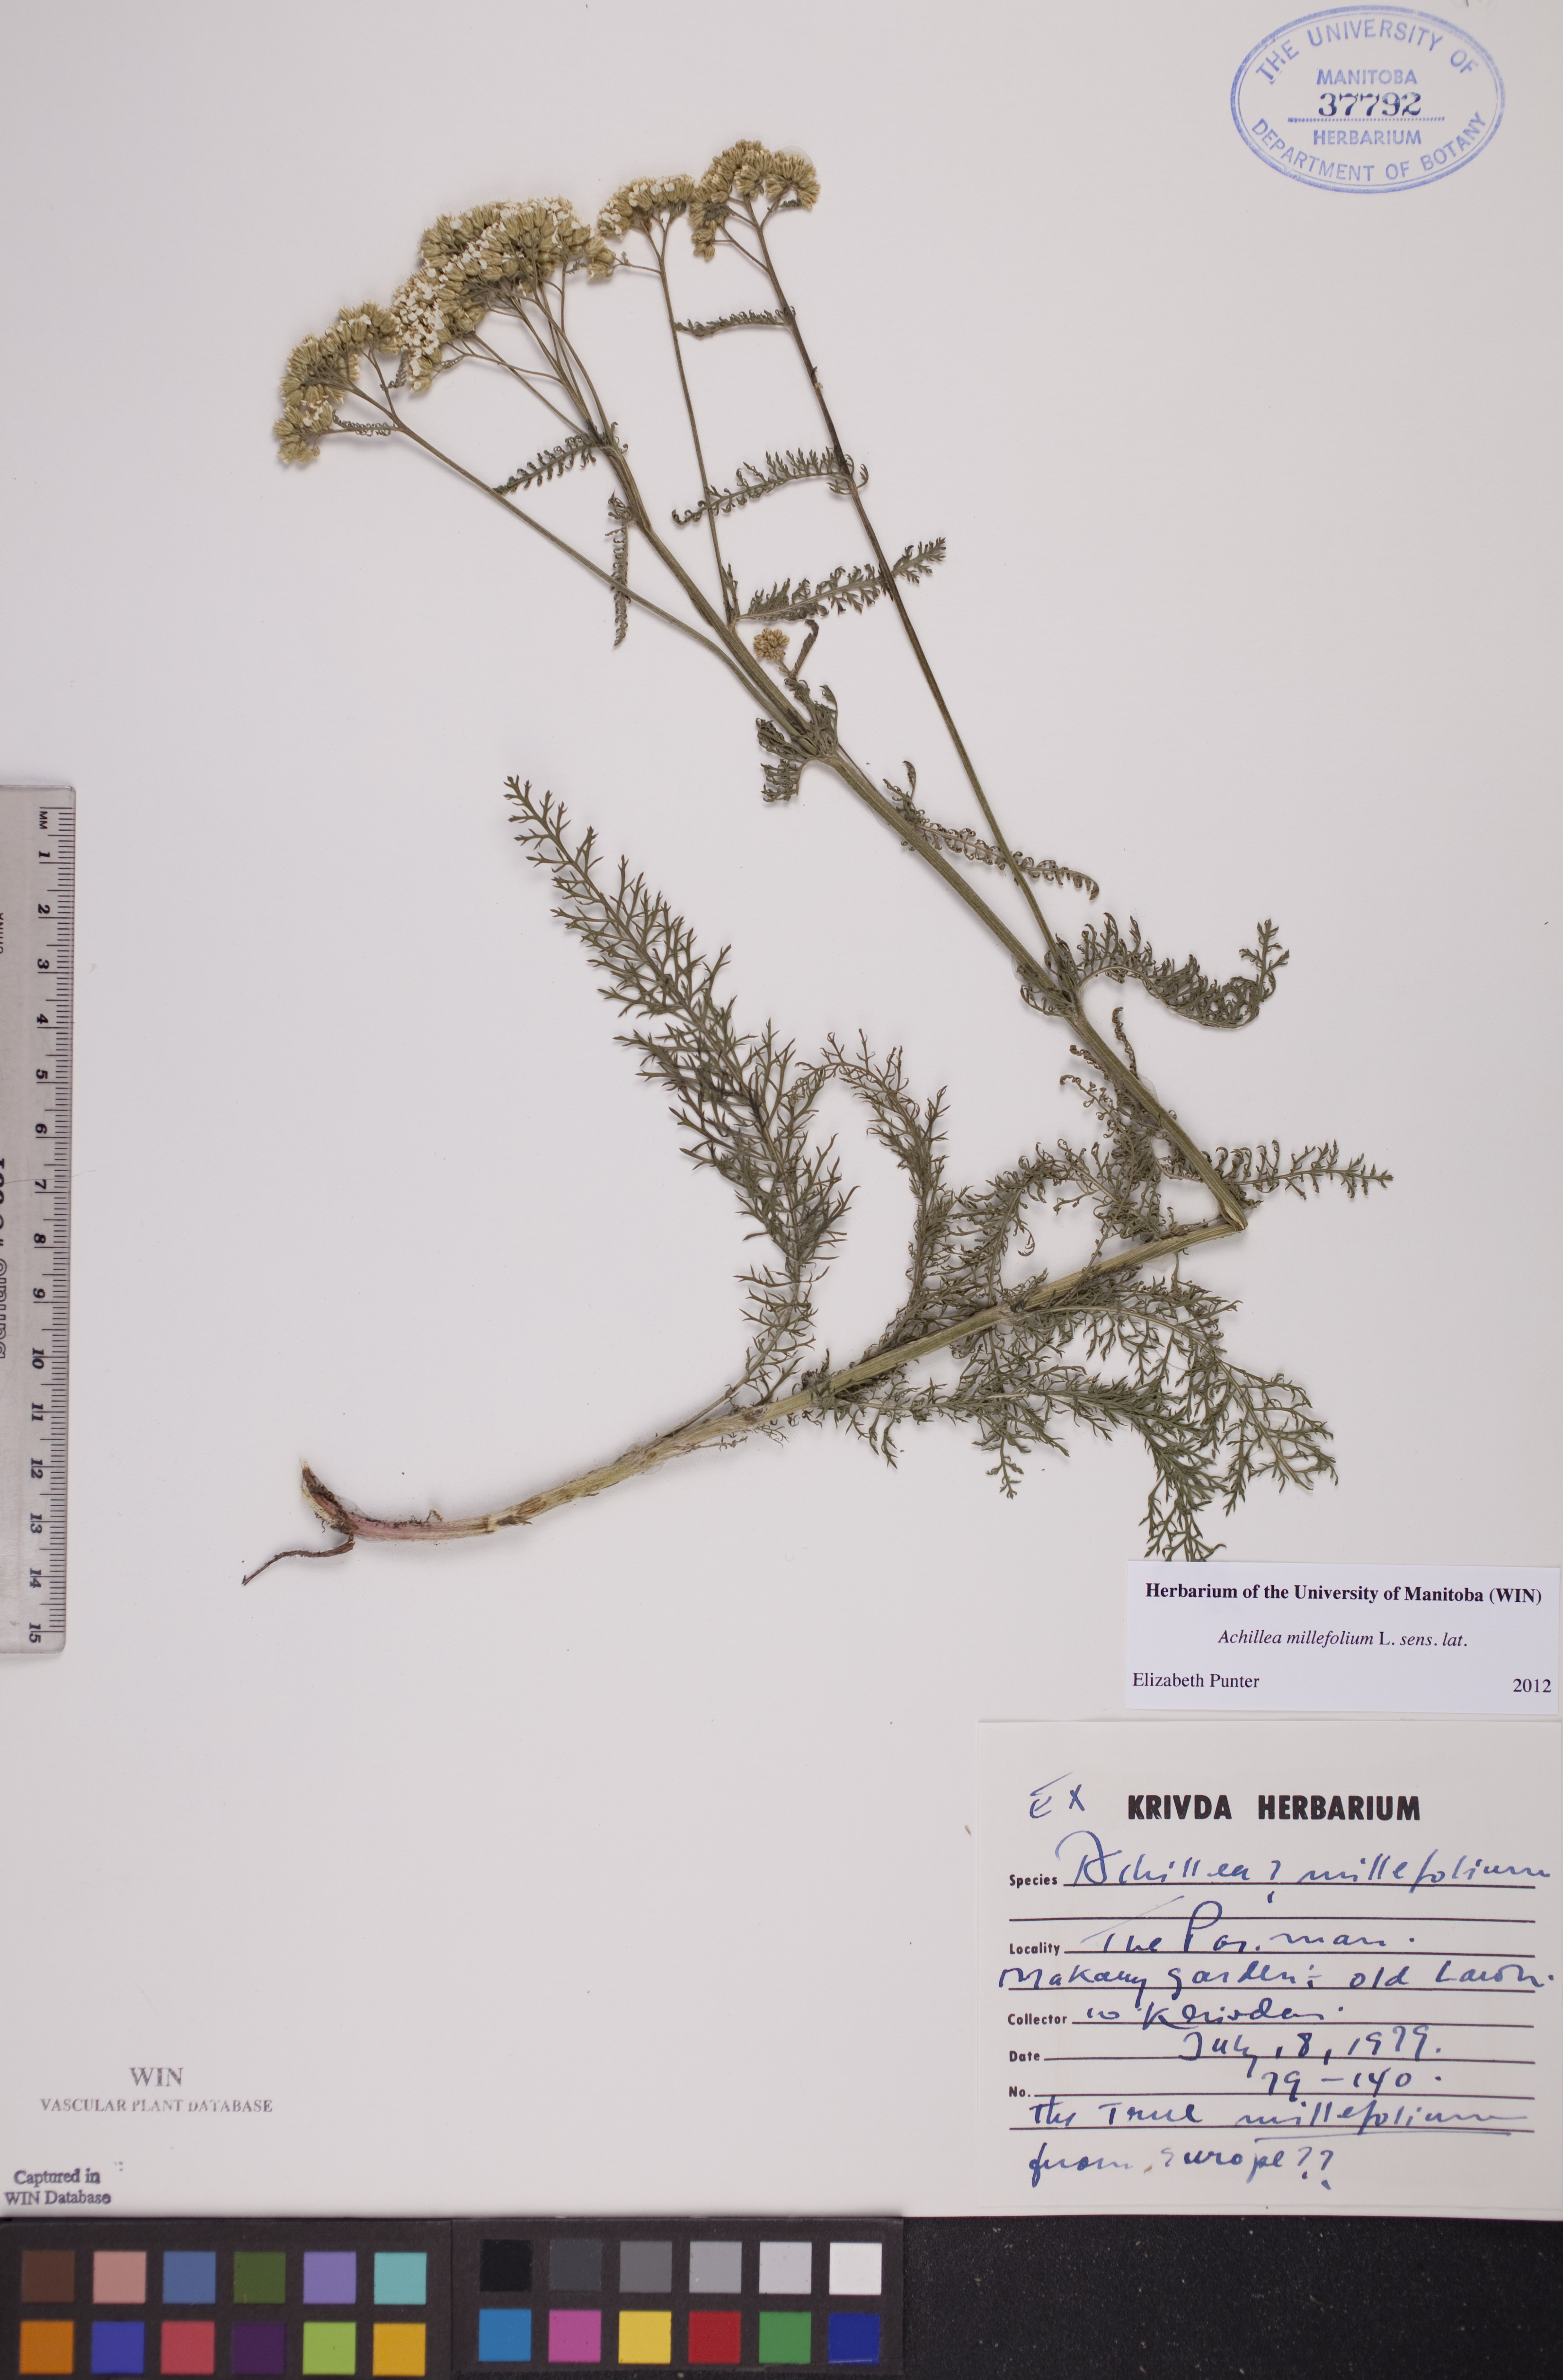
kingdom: Plantae
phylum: Tracheophyta
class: Magnoliopsida
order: Asterales
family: Asteraceae
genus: Achillea
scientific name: Achillea millefolium
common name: Yarrow
